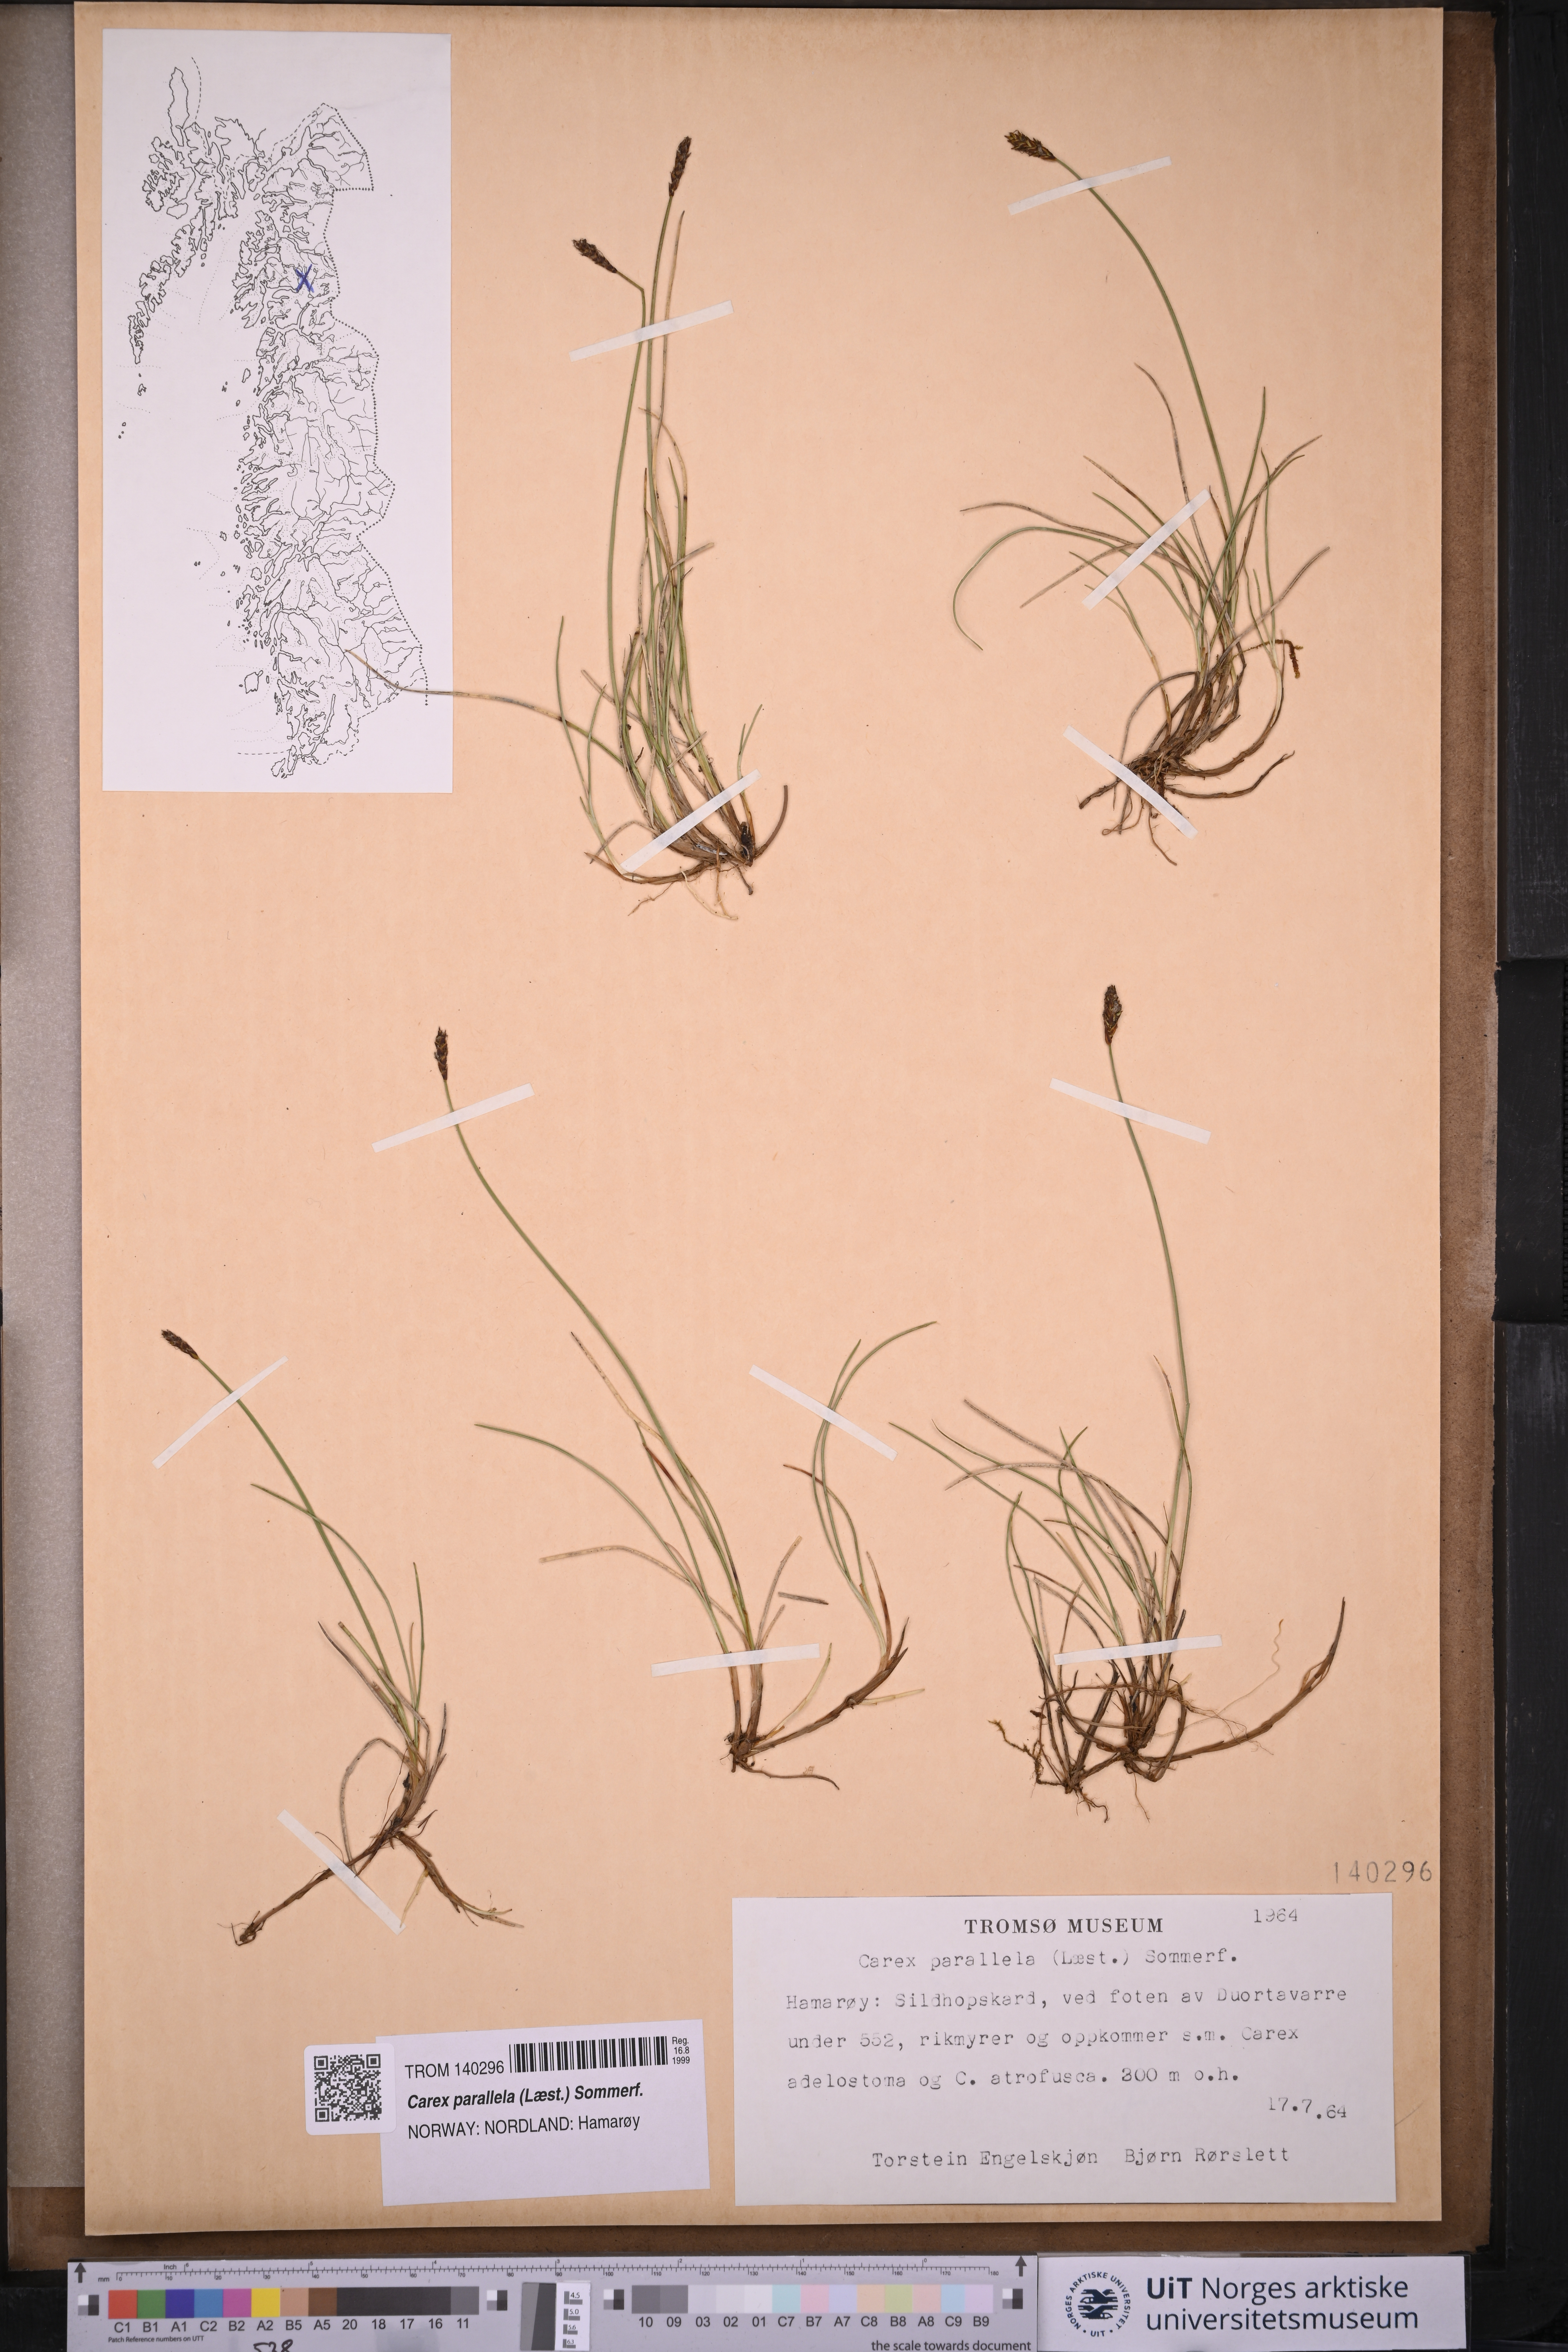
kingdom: Plantae
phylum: Tracheophyta
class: Liliopsida
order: Poales
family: Cyperaceae
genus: Carex
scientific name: Carex parallela
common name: Parallel sedge
